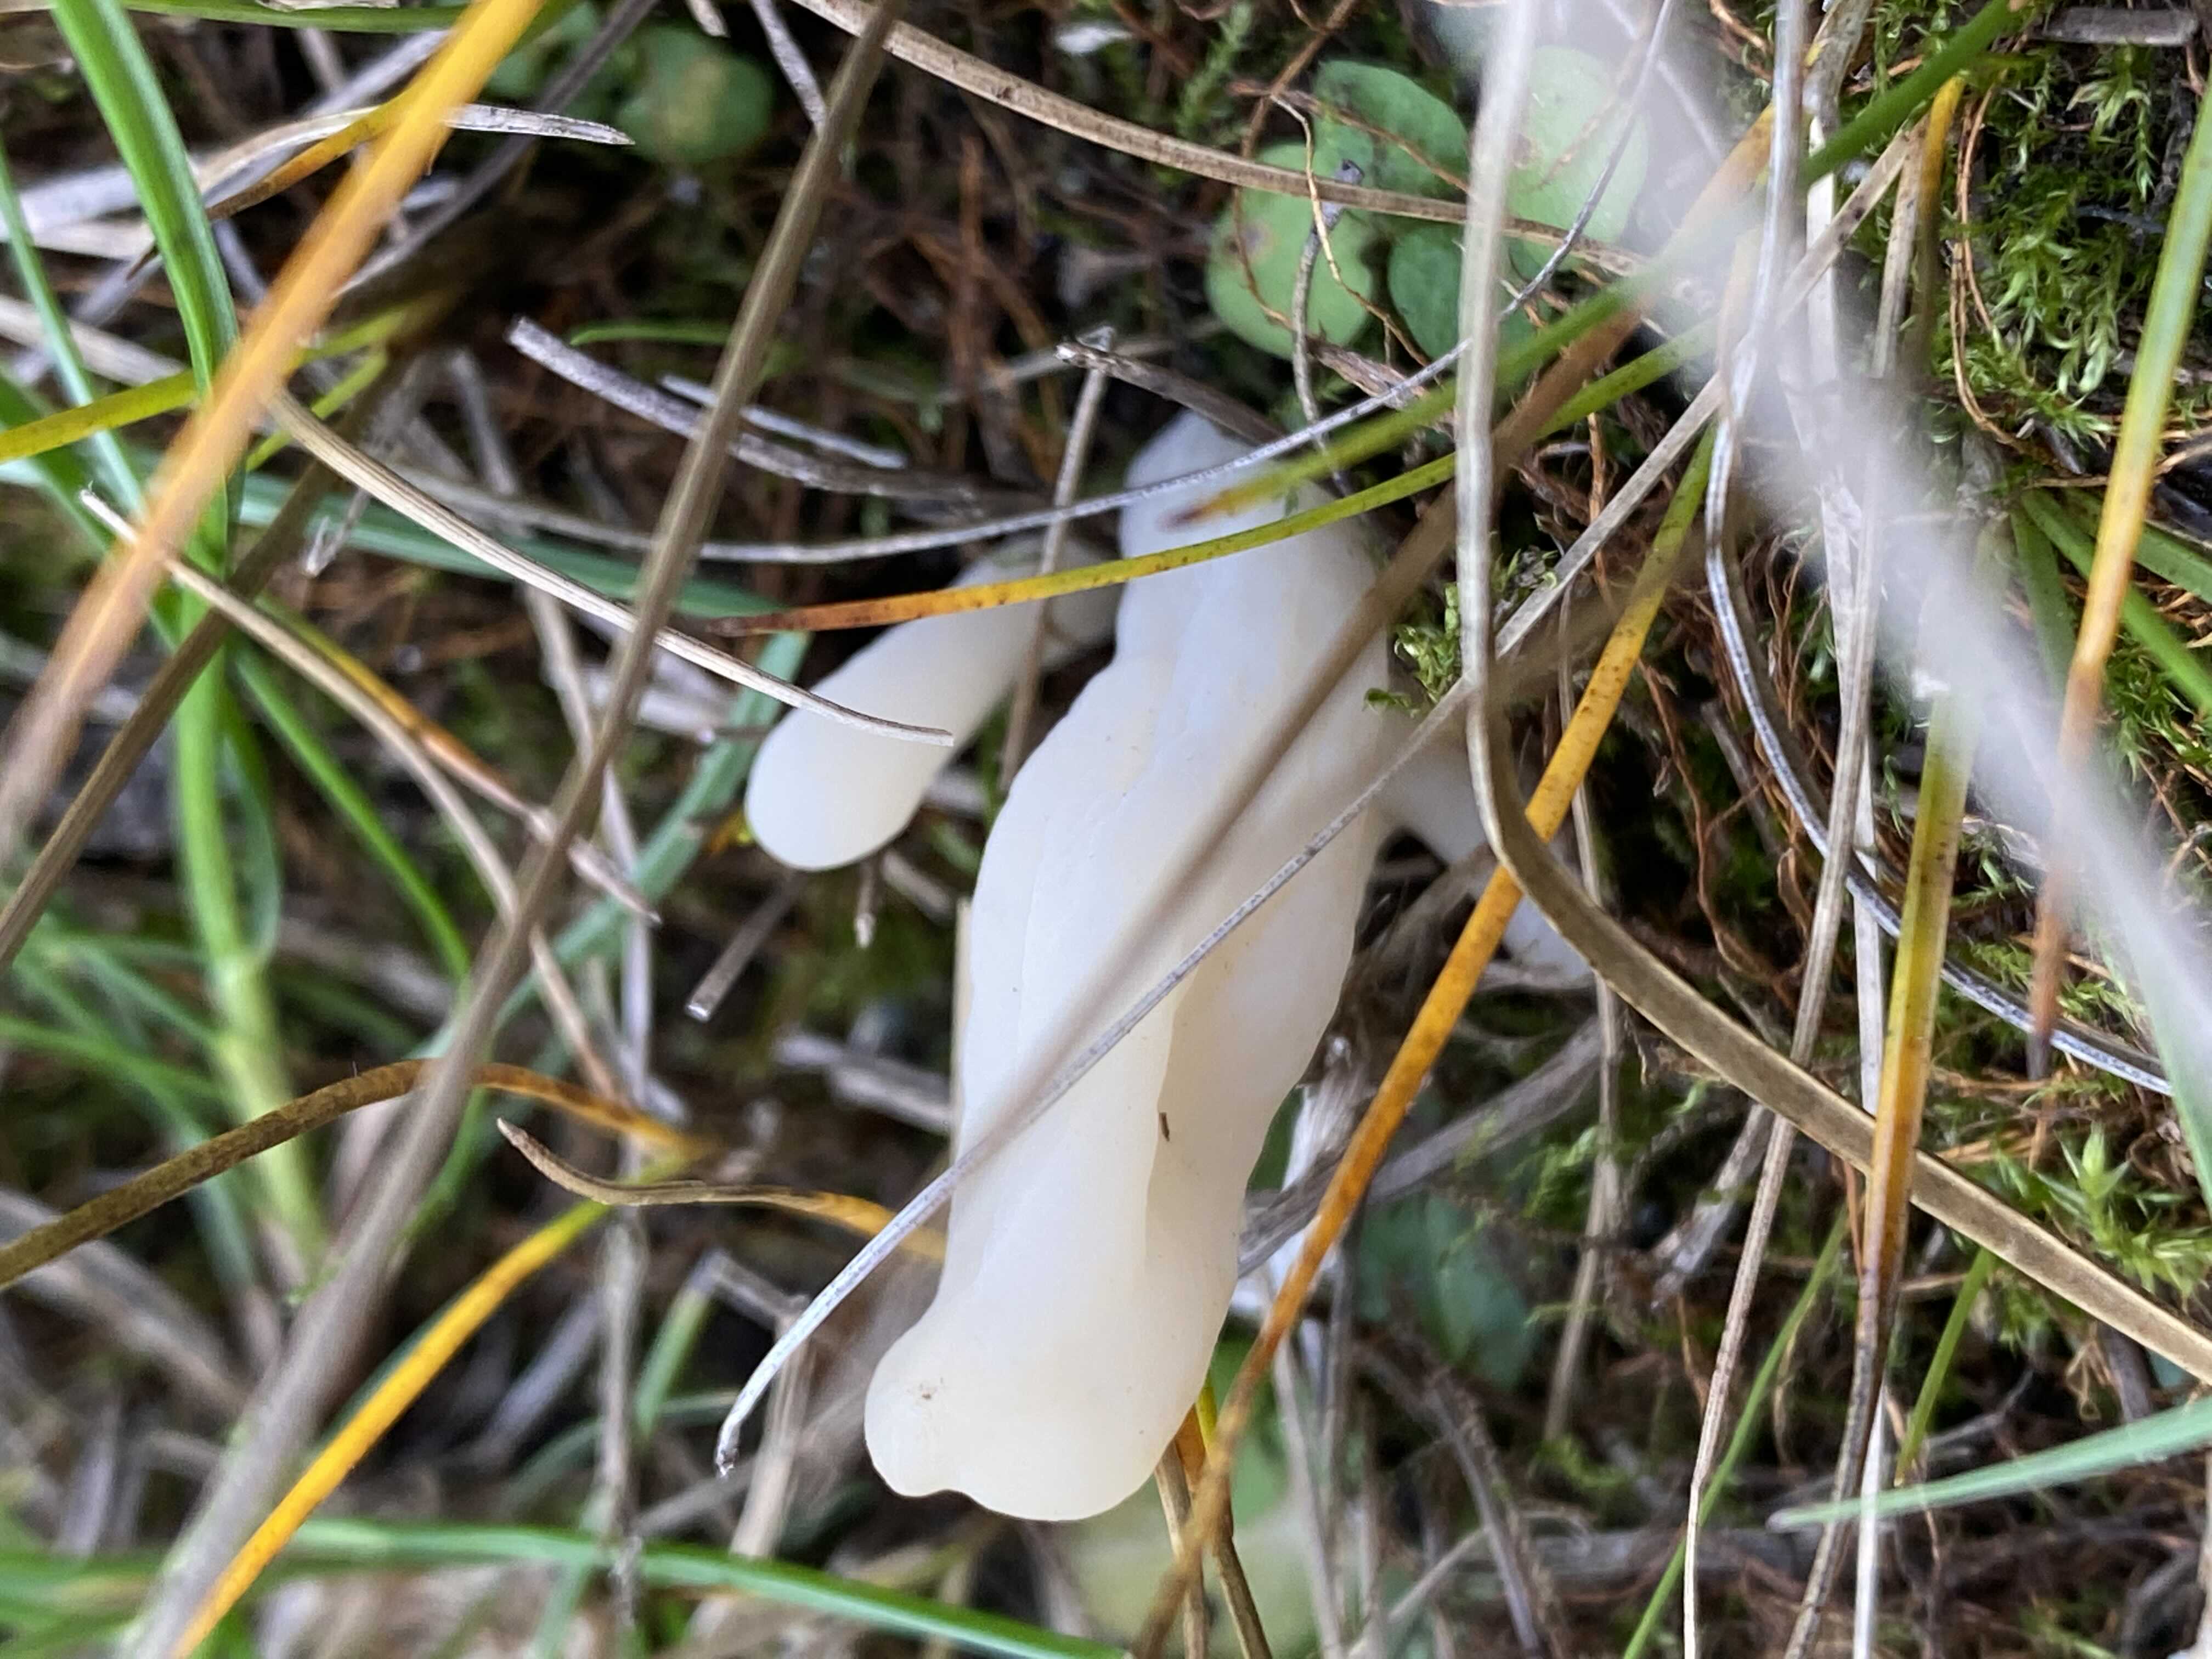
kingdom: Fungi
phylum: Basidiomycota
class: Agaricomycetes
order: Agaricales
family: Clavariaceae
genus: Clavaria
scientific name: Clavaria
